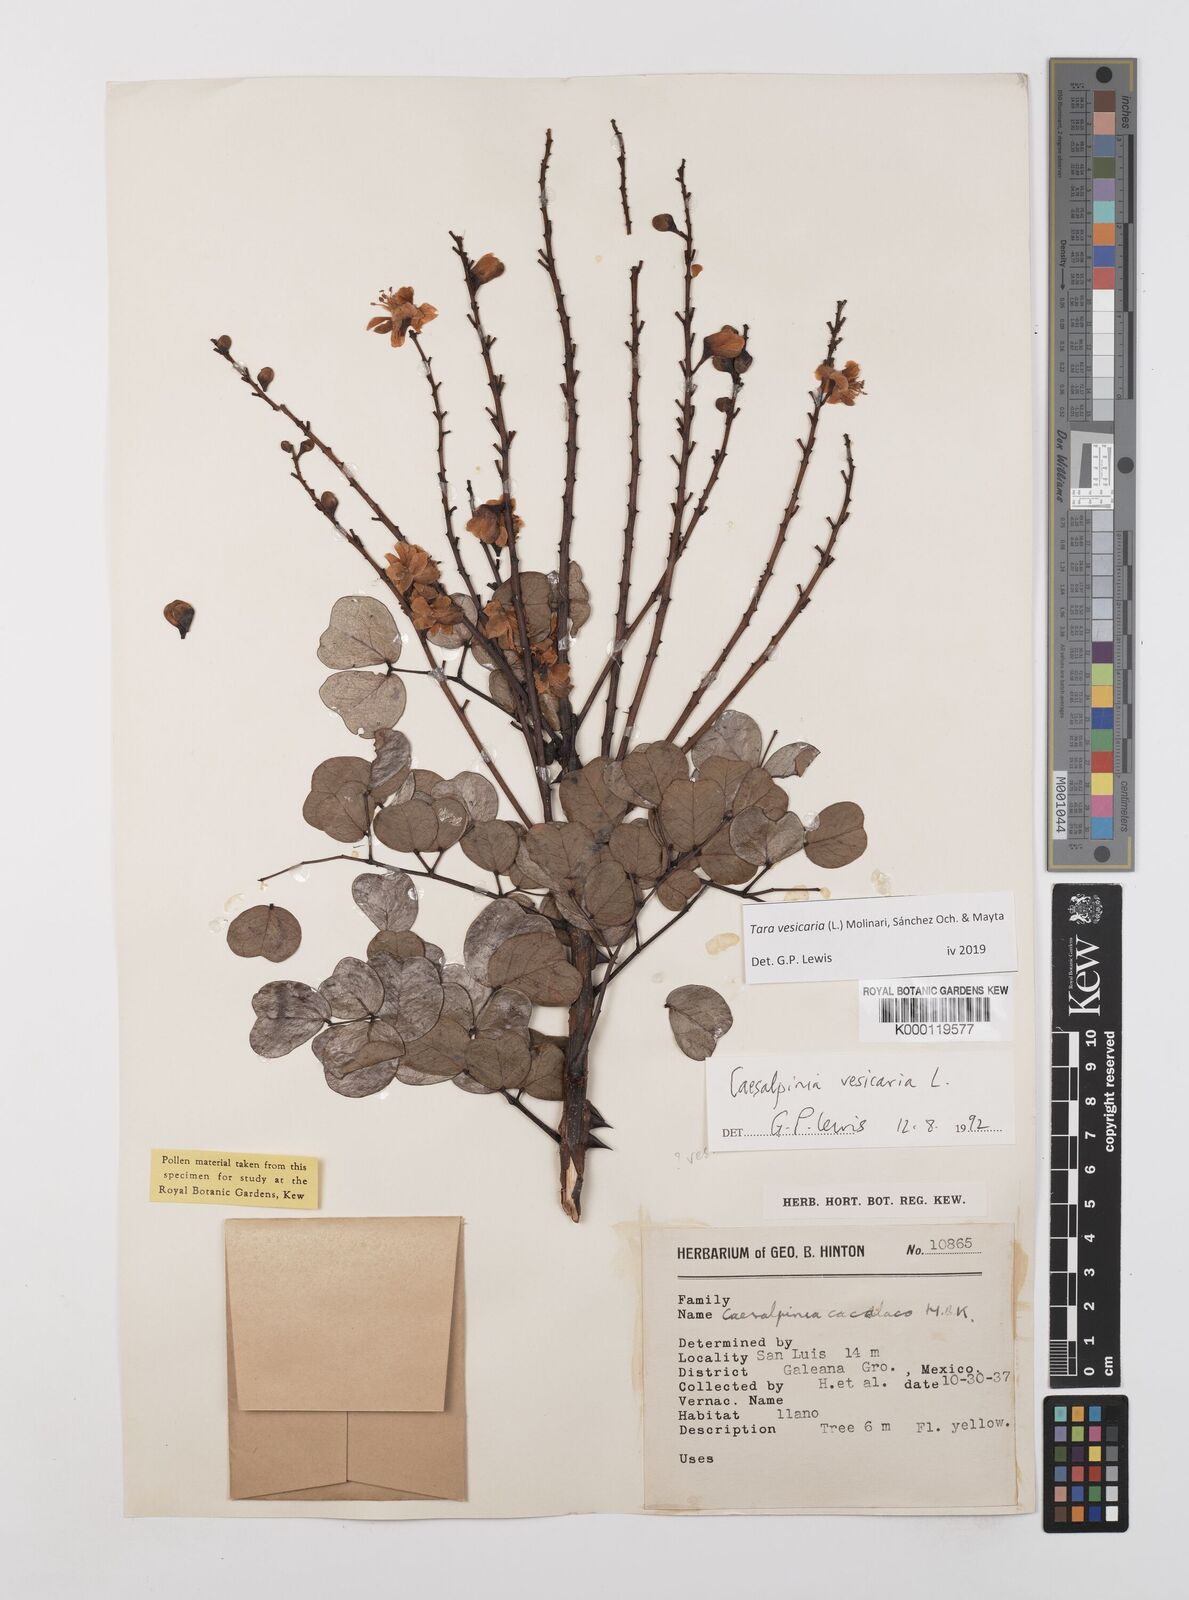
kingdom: Plantae
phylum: Tracheophyta
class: Magnoliopsida
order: Fabales
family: Fabaceae
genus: Tara
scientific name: Tara vesicaria
